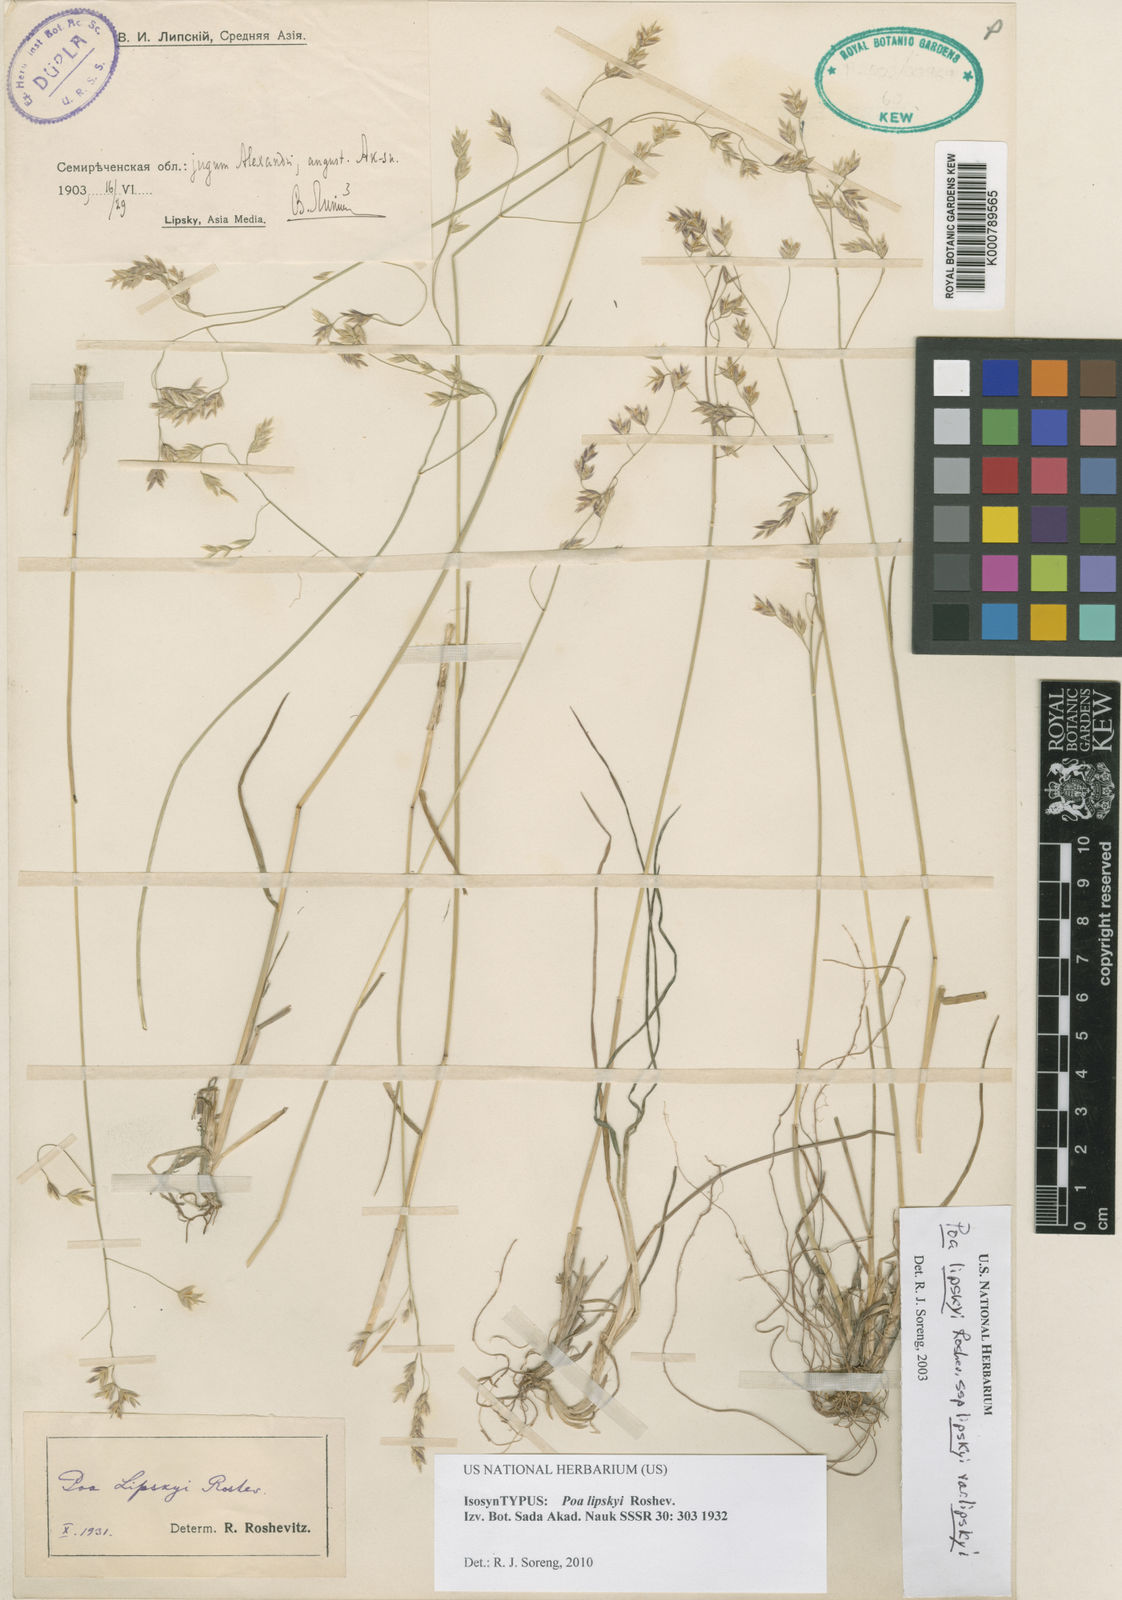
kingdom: Plantae
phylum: Tracheophyta
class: Liliopsida
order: Poales
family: Poaceae
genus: Poa
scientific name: Poa lipskyi
